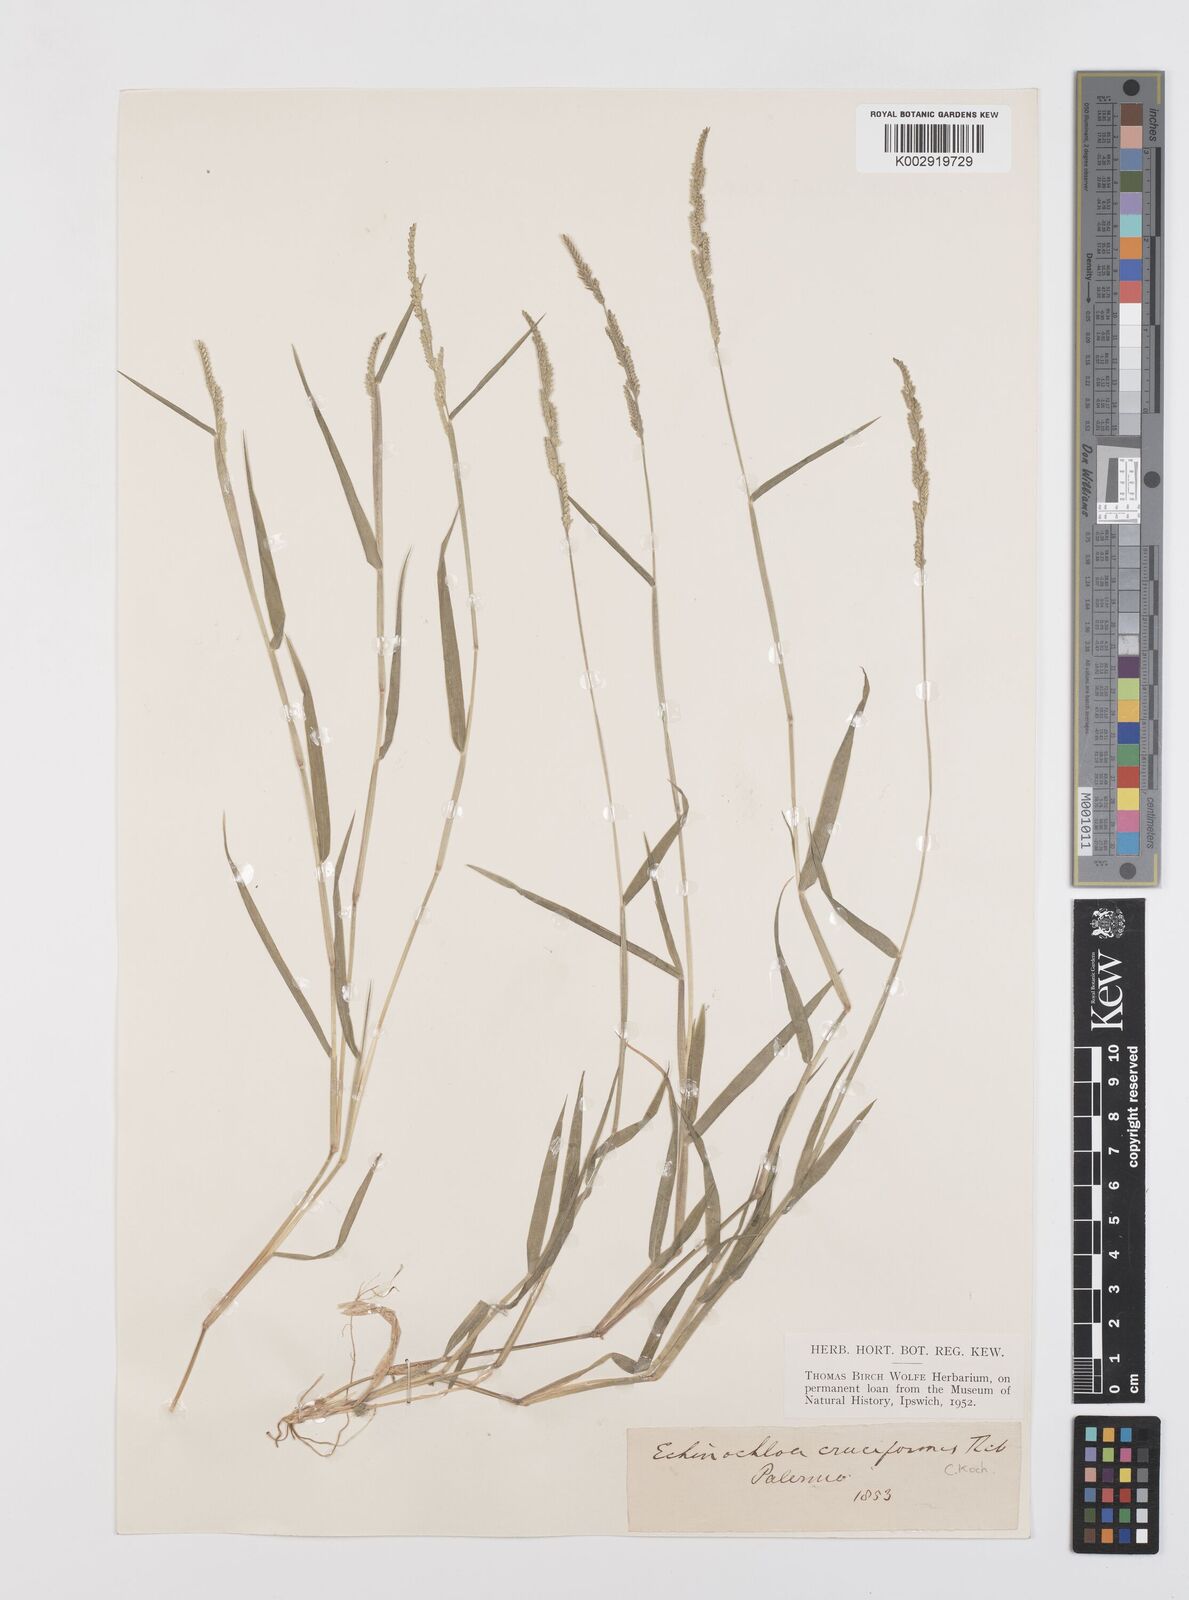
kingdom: Plantae
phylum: Tracheophyta
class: Liliopsida
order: Poales
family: Poaceae
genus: Moorochloa
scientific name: Moorochloa eruciformis
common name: Sweet signalgrass
